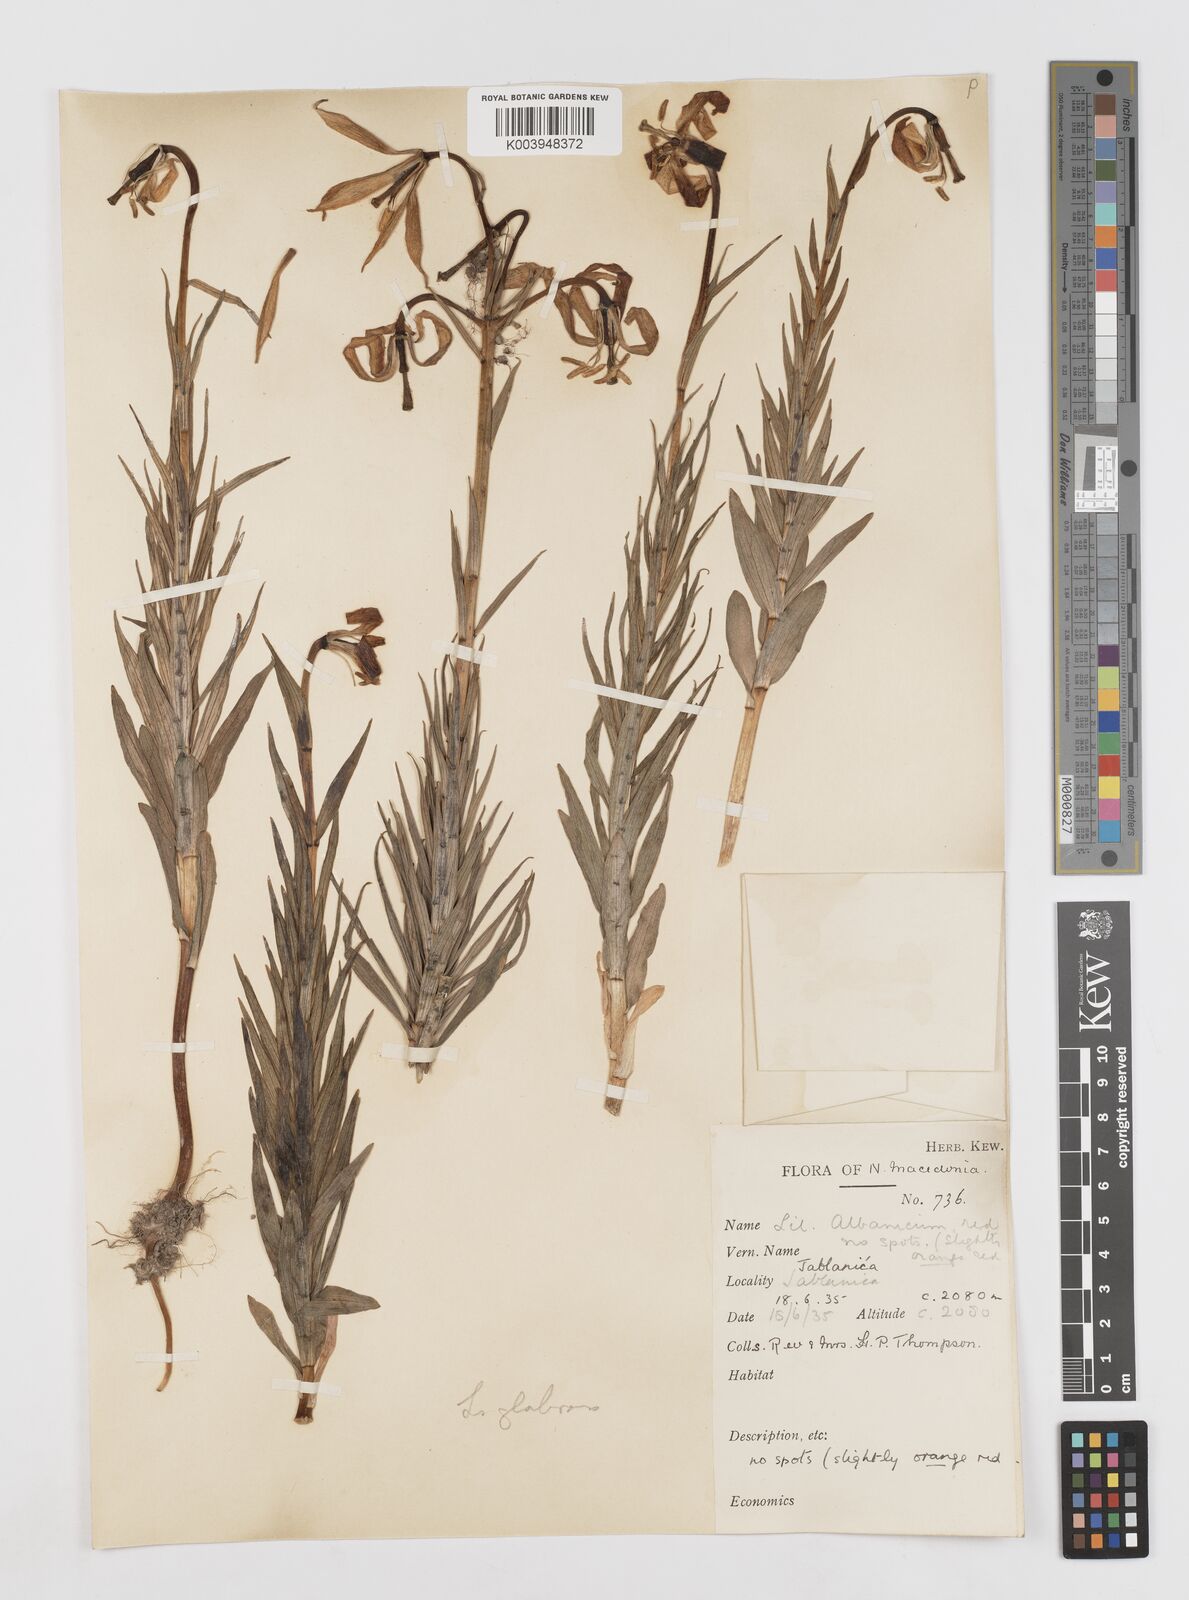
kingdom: Plantae
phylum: Tracheophyta
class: Liliopsida
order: Liliales
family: Liliaceae
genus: Lilium
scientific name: Lilium carniolicum
